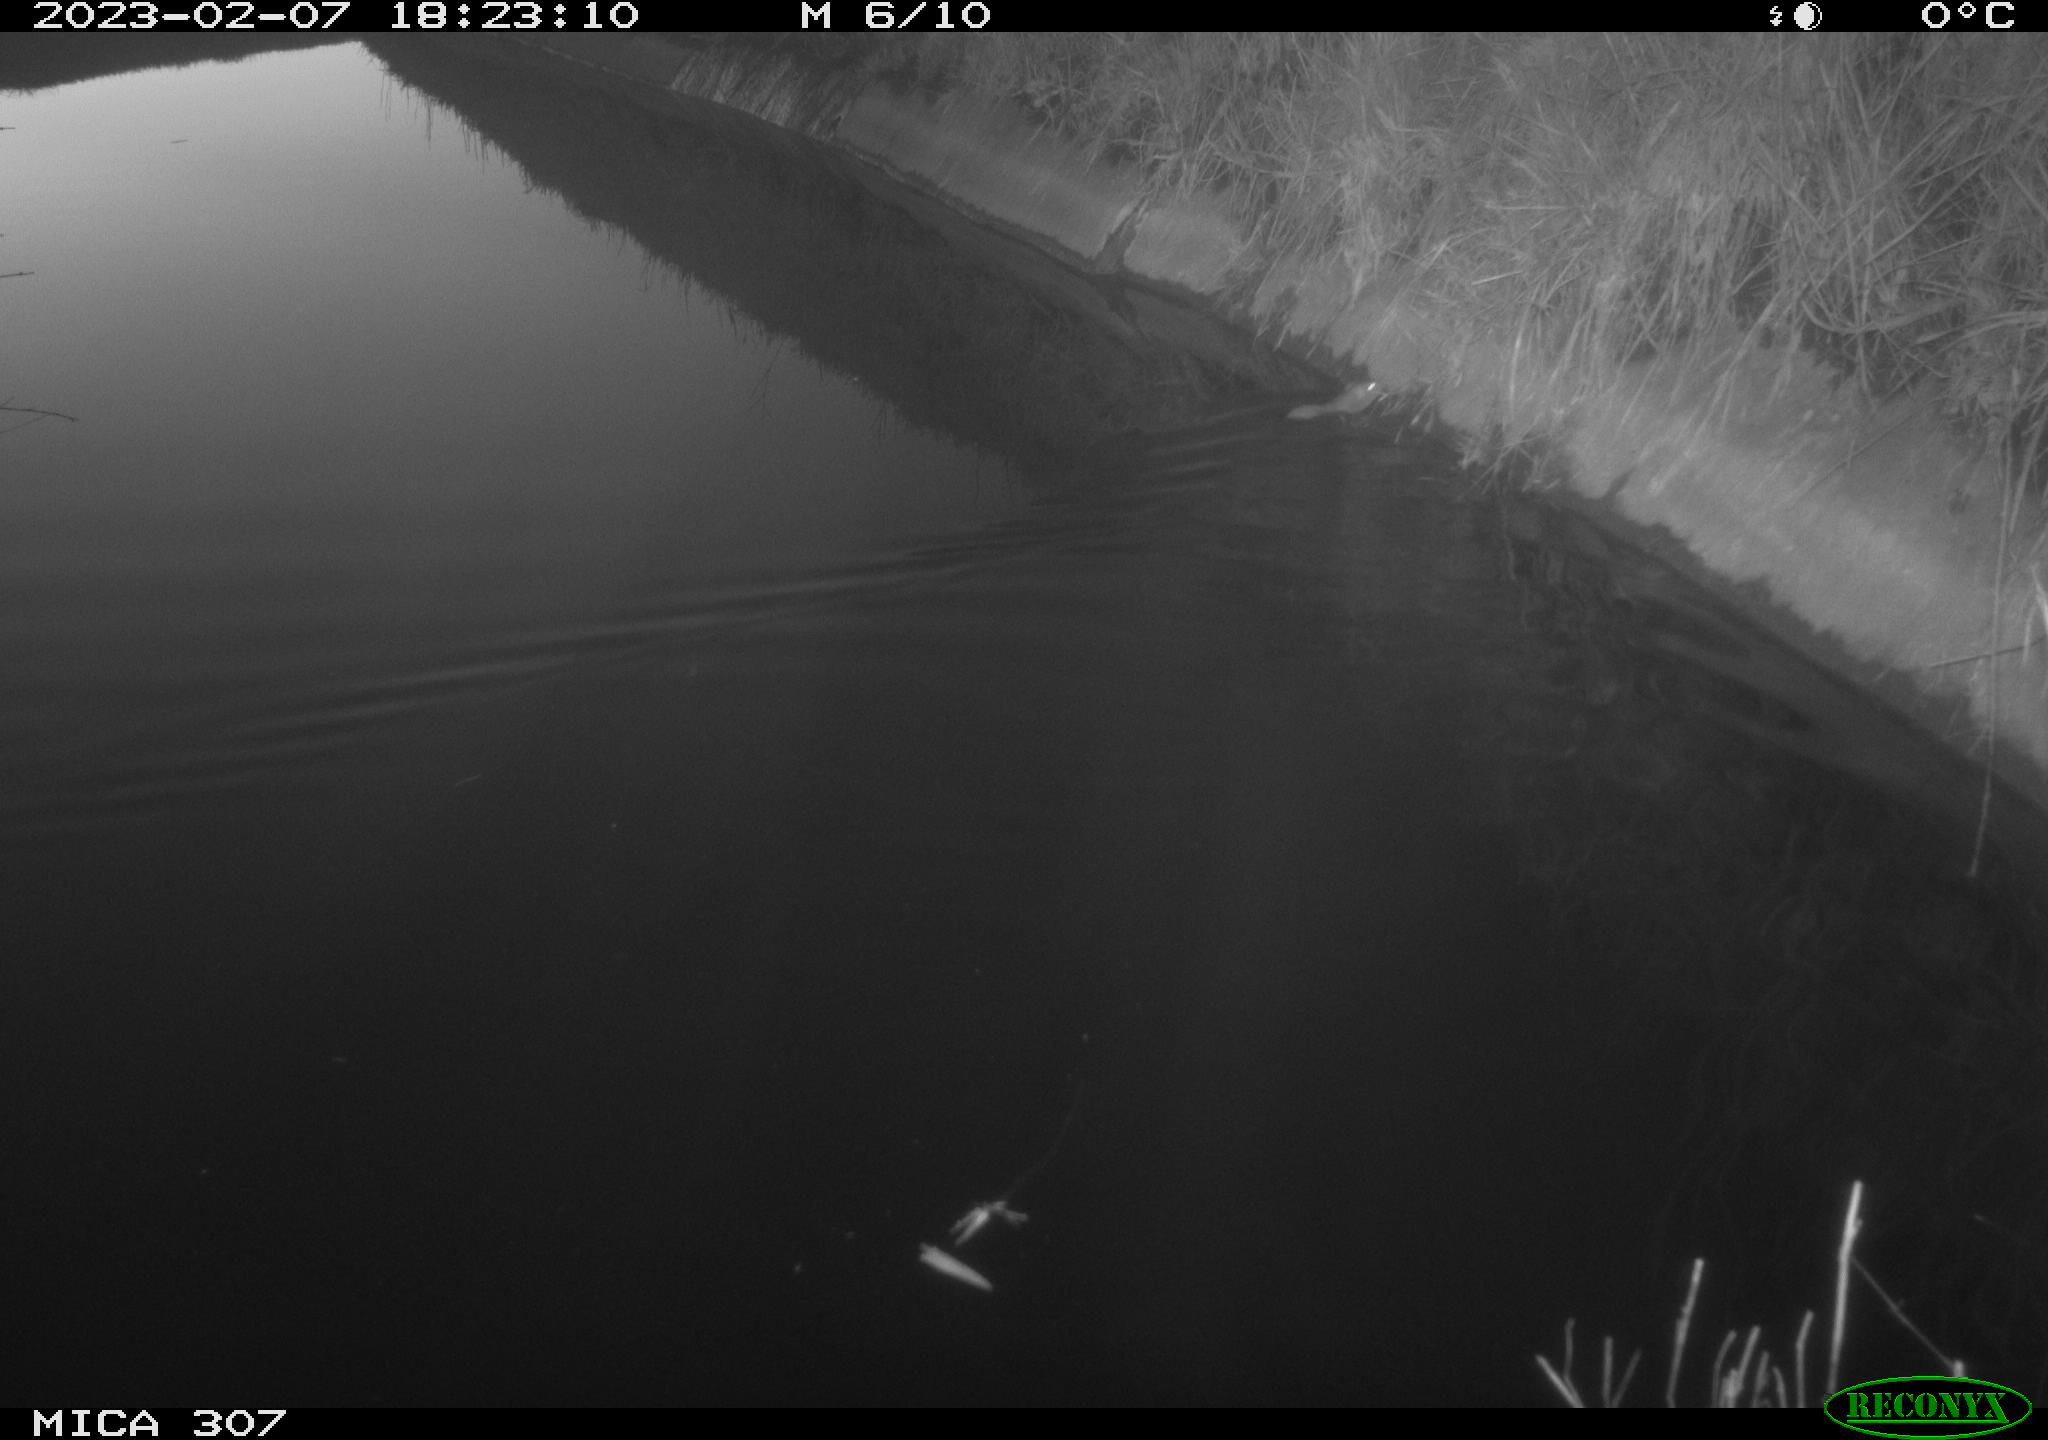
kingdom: Animalia
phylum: Chordata
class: Mammalia
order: Rodentia
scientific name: Rodentia
